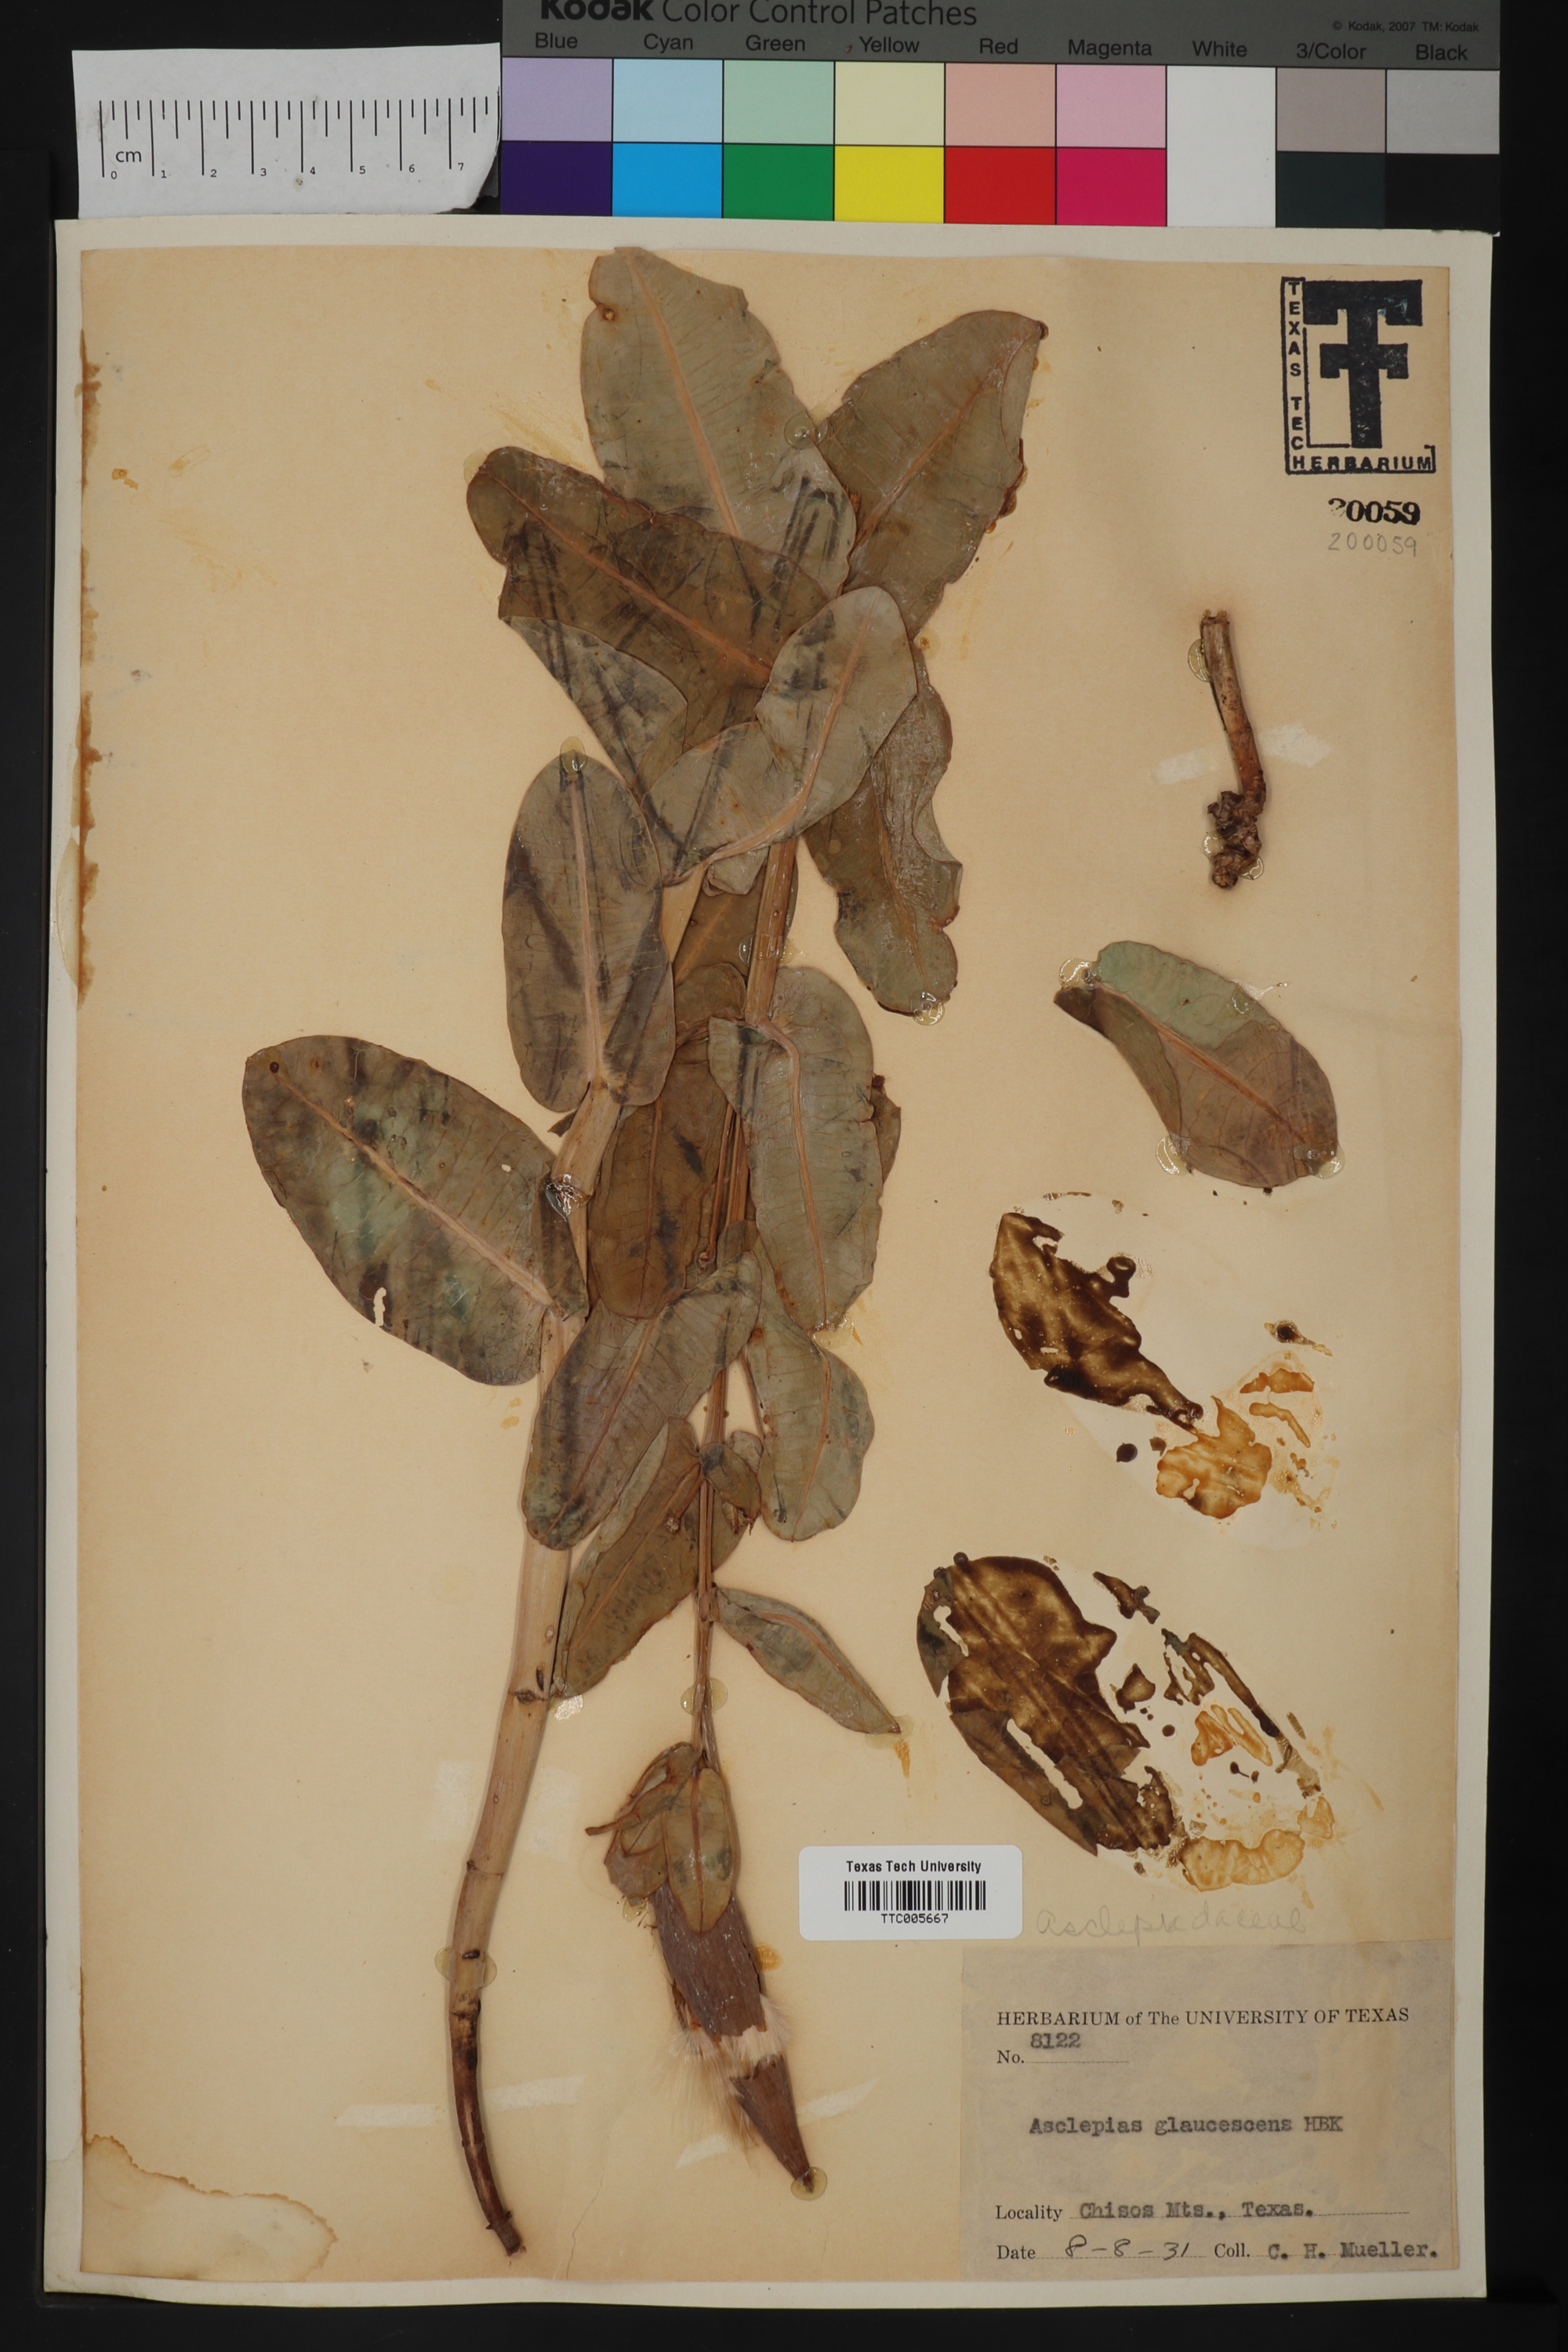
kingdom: Plantae
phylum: Tracheophyta
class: Magnoliopsida
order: Gentianales
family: Apocynaceae
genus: Asclepias
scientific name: Asclepias glaucescens
